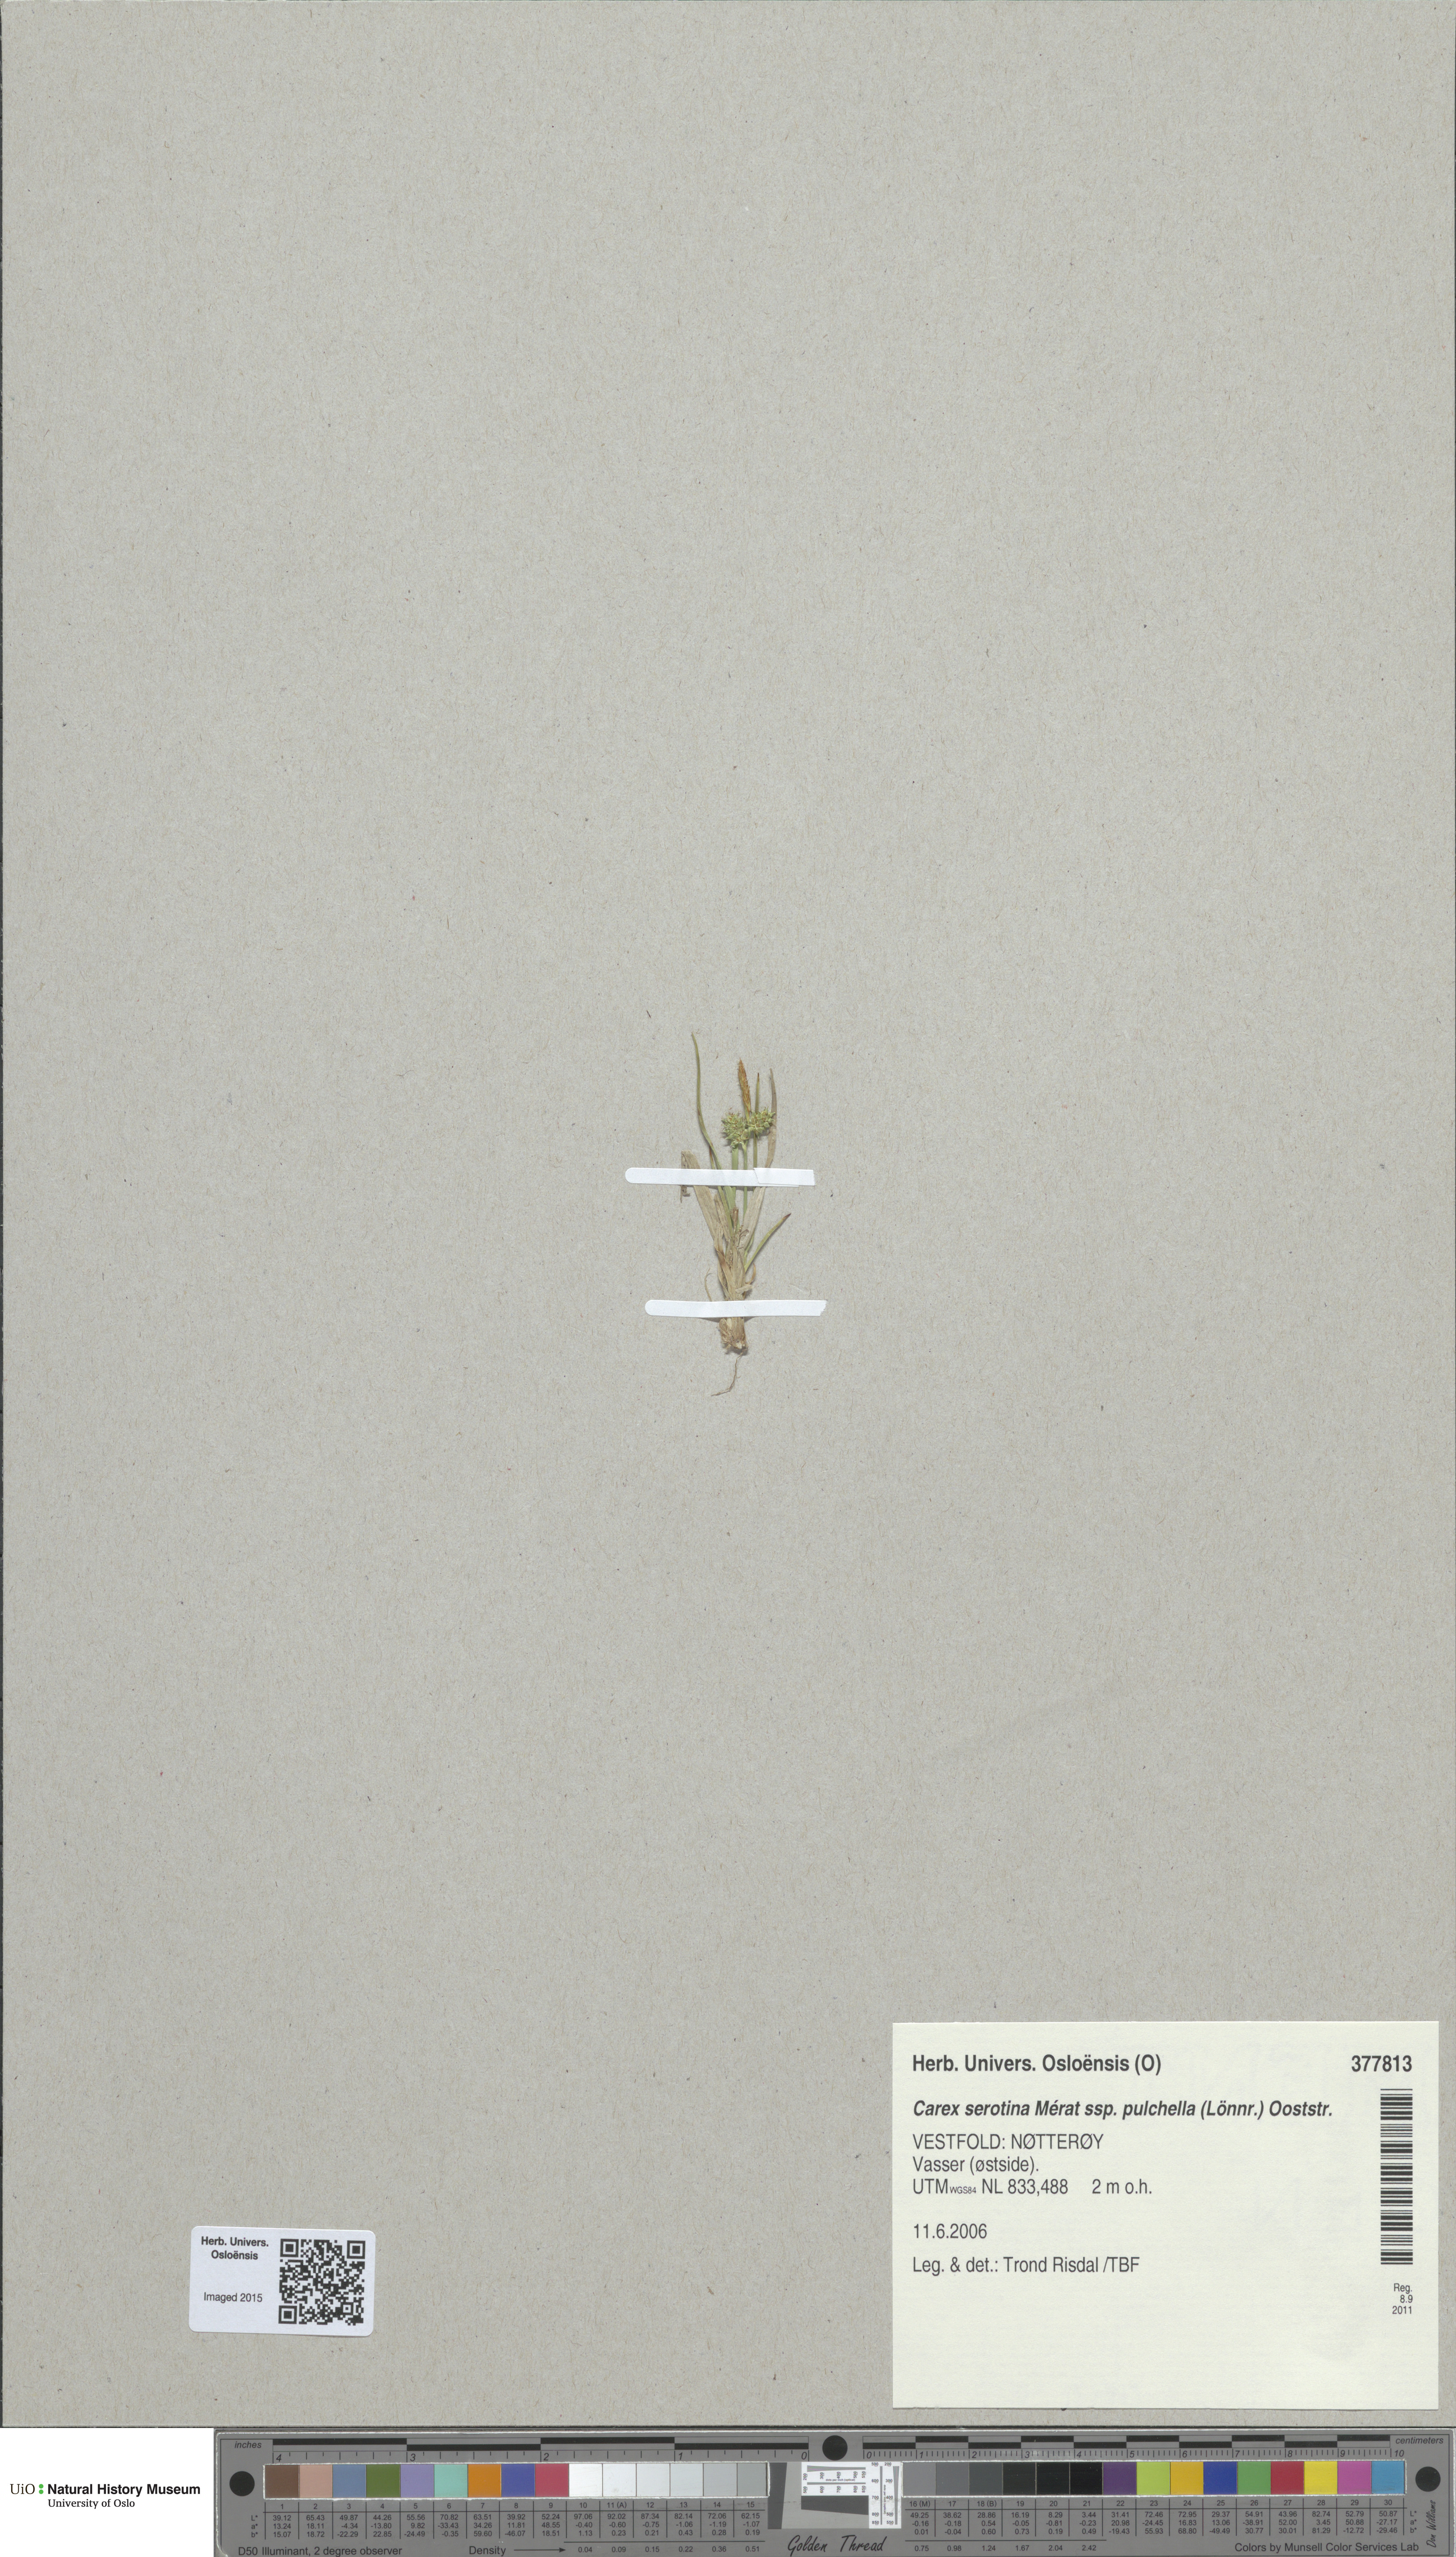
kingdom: Plantae
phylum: Tracheophyta
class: Liliopsida
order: Poales
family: Cyperaceae
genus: Carex
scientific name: Carex oederi
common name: Common & small-fruited yellow-sedge
